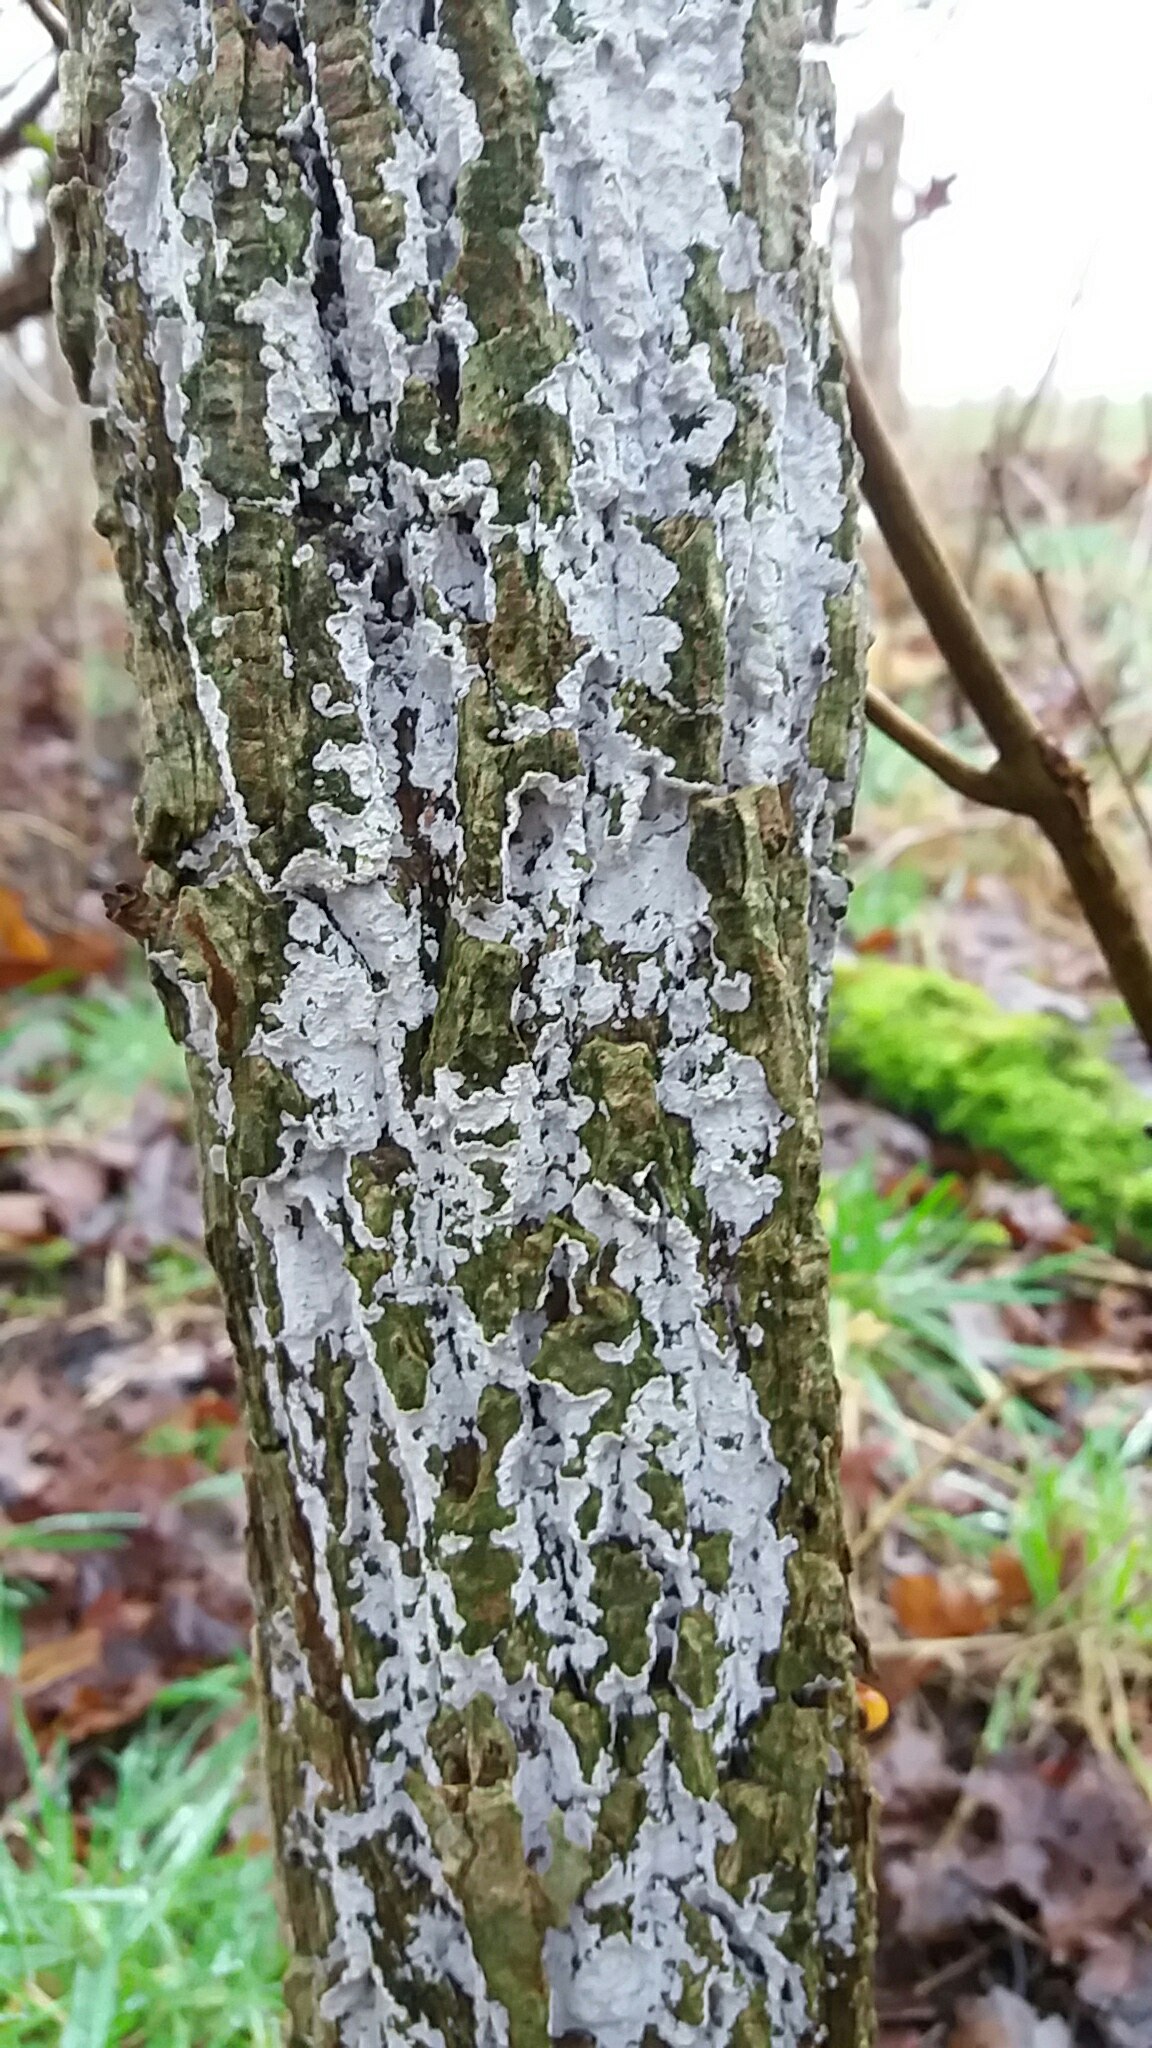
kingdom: Fungi
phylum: Basidiomycota
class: Agaricomycetes
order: Corticiales
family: Corticiaceae
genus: Lyomyces
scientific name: Lyomyces sambuci
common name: almindelig hyldehinde
